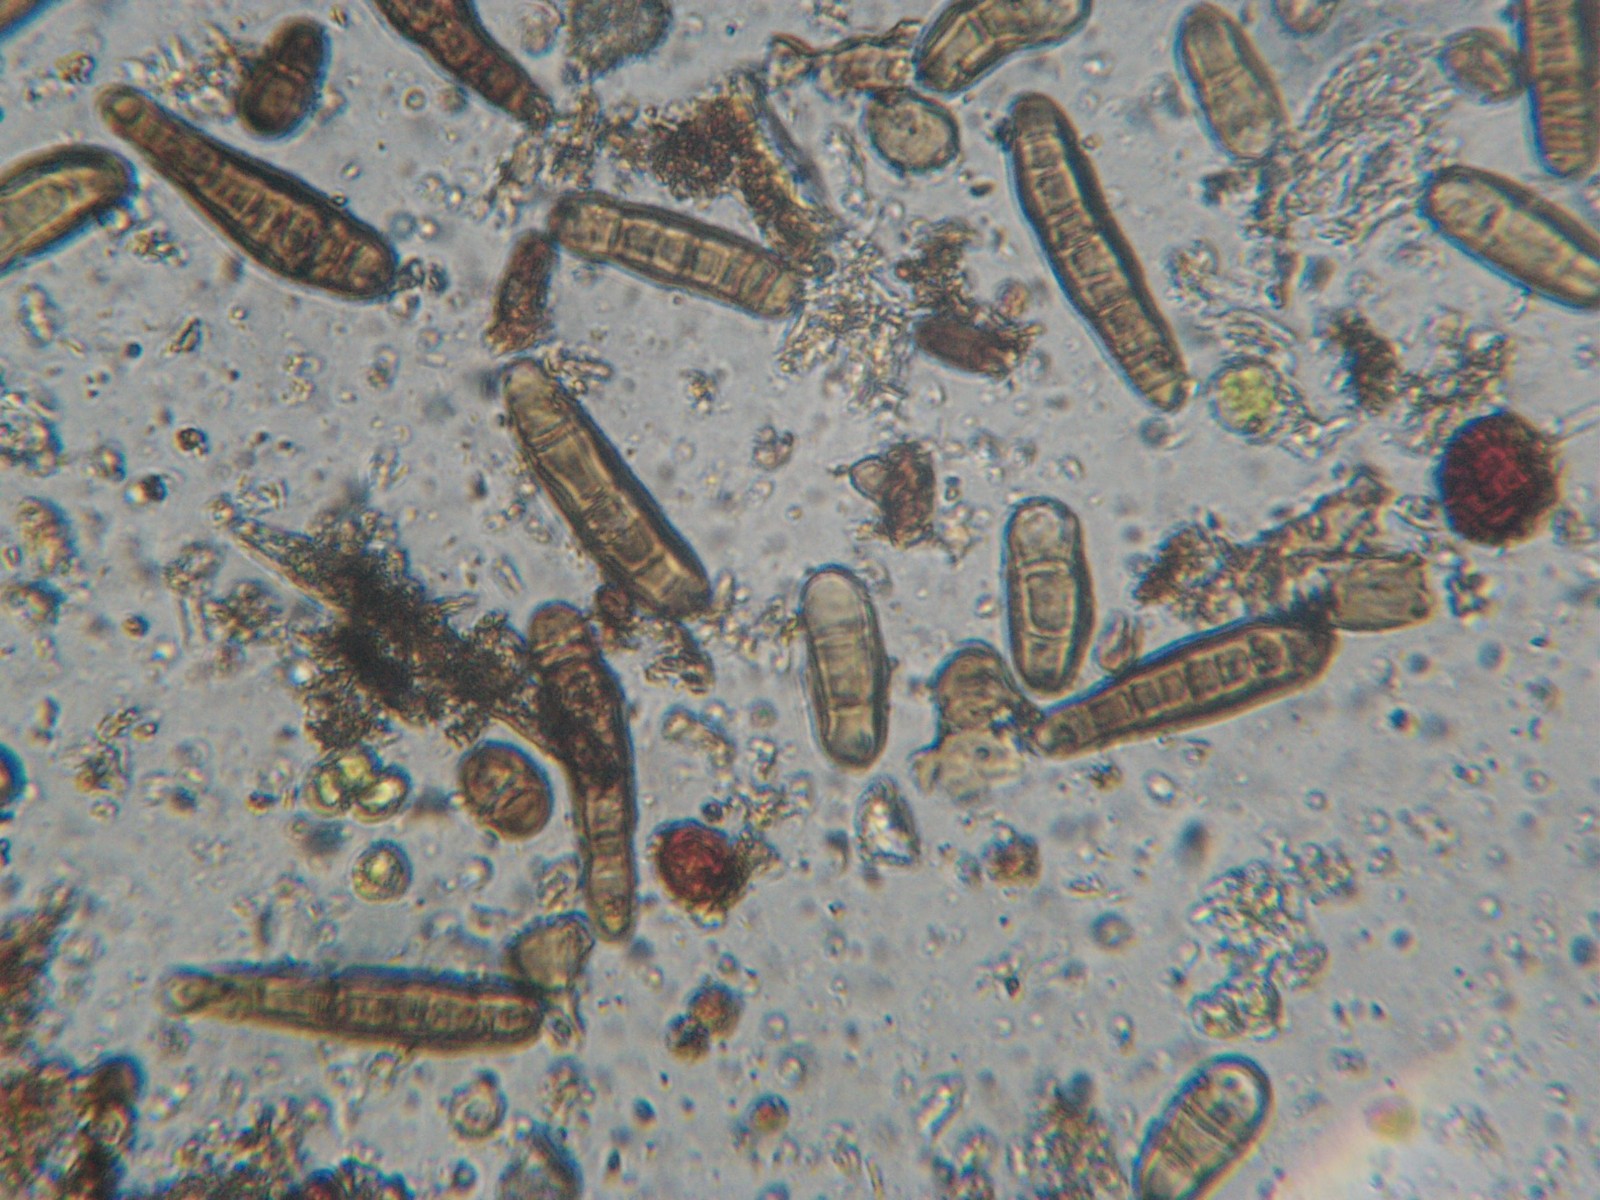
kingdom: Fungi
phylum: Ascomycota
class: Dothideomycetes
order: Pleosporales
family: Massarinaceae
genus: Helminthosporium
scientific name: Helminthosporium oligosporum
